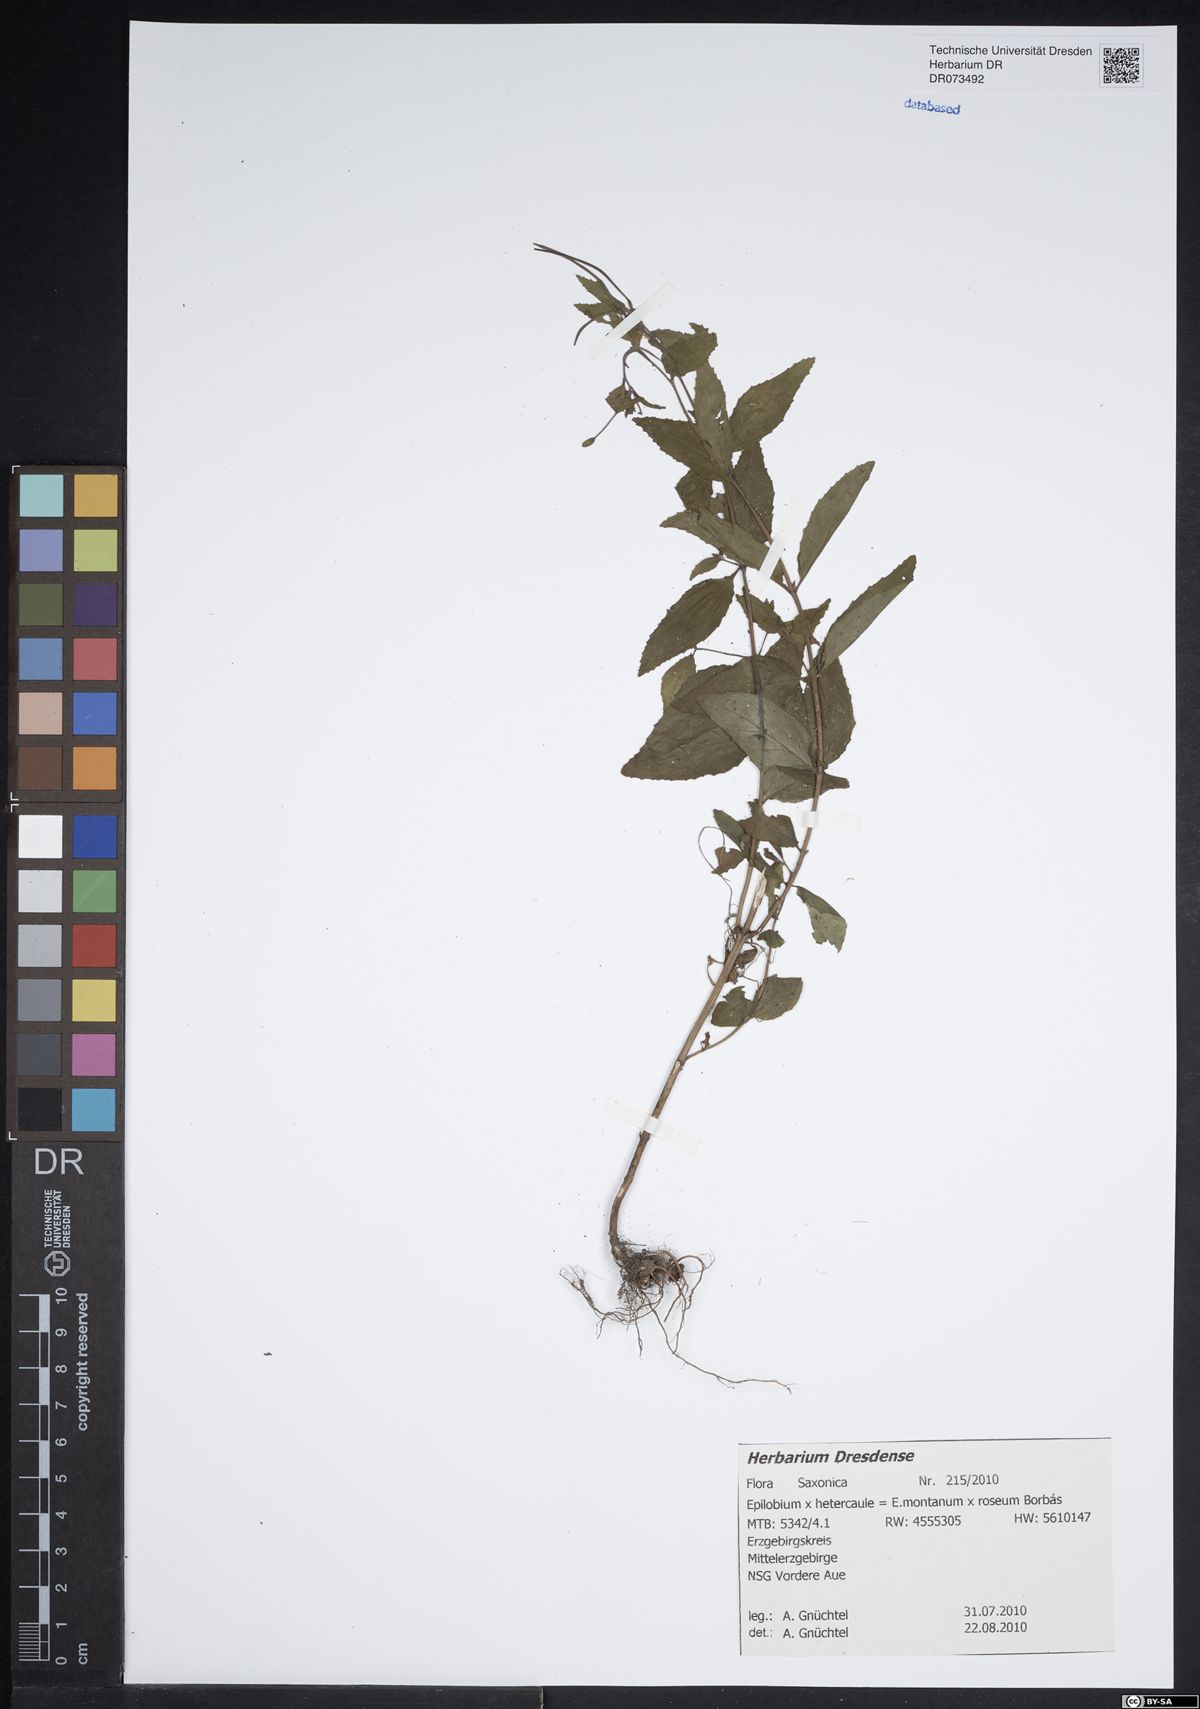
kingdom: Plantae
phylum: Tracheophyta
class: Magnoliopsida
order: Myrtales
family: Onagraceae
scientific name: Onagraceae
